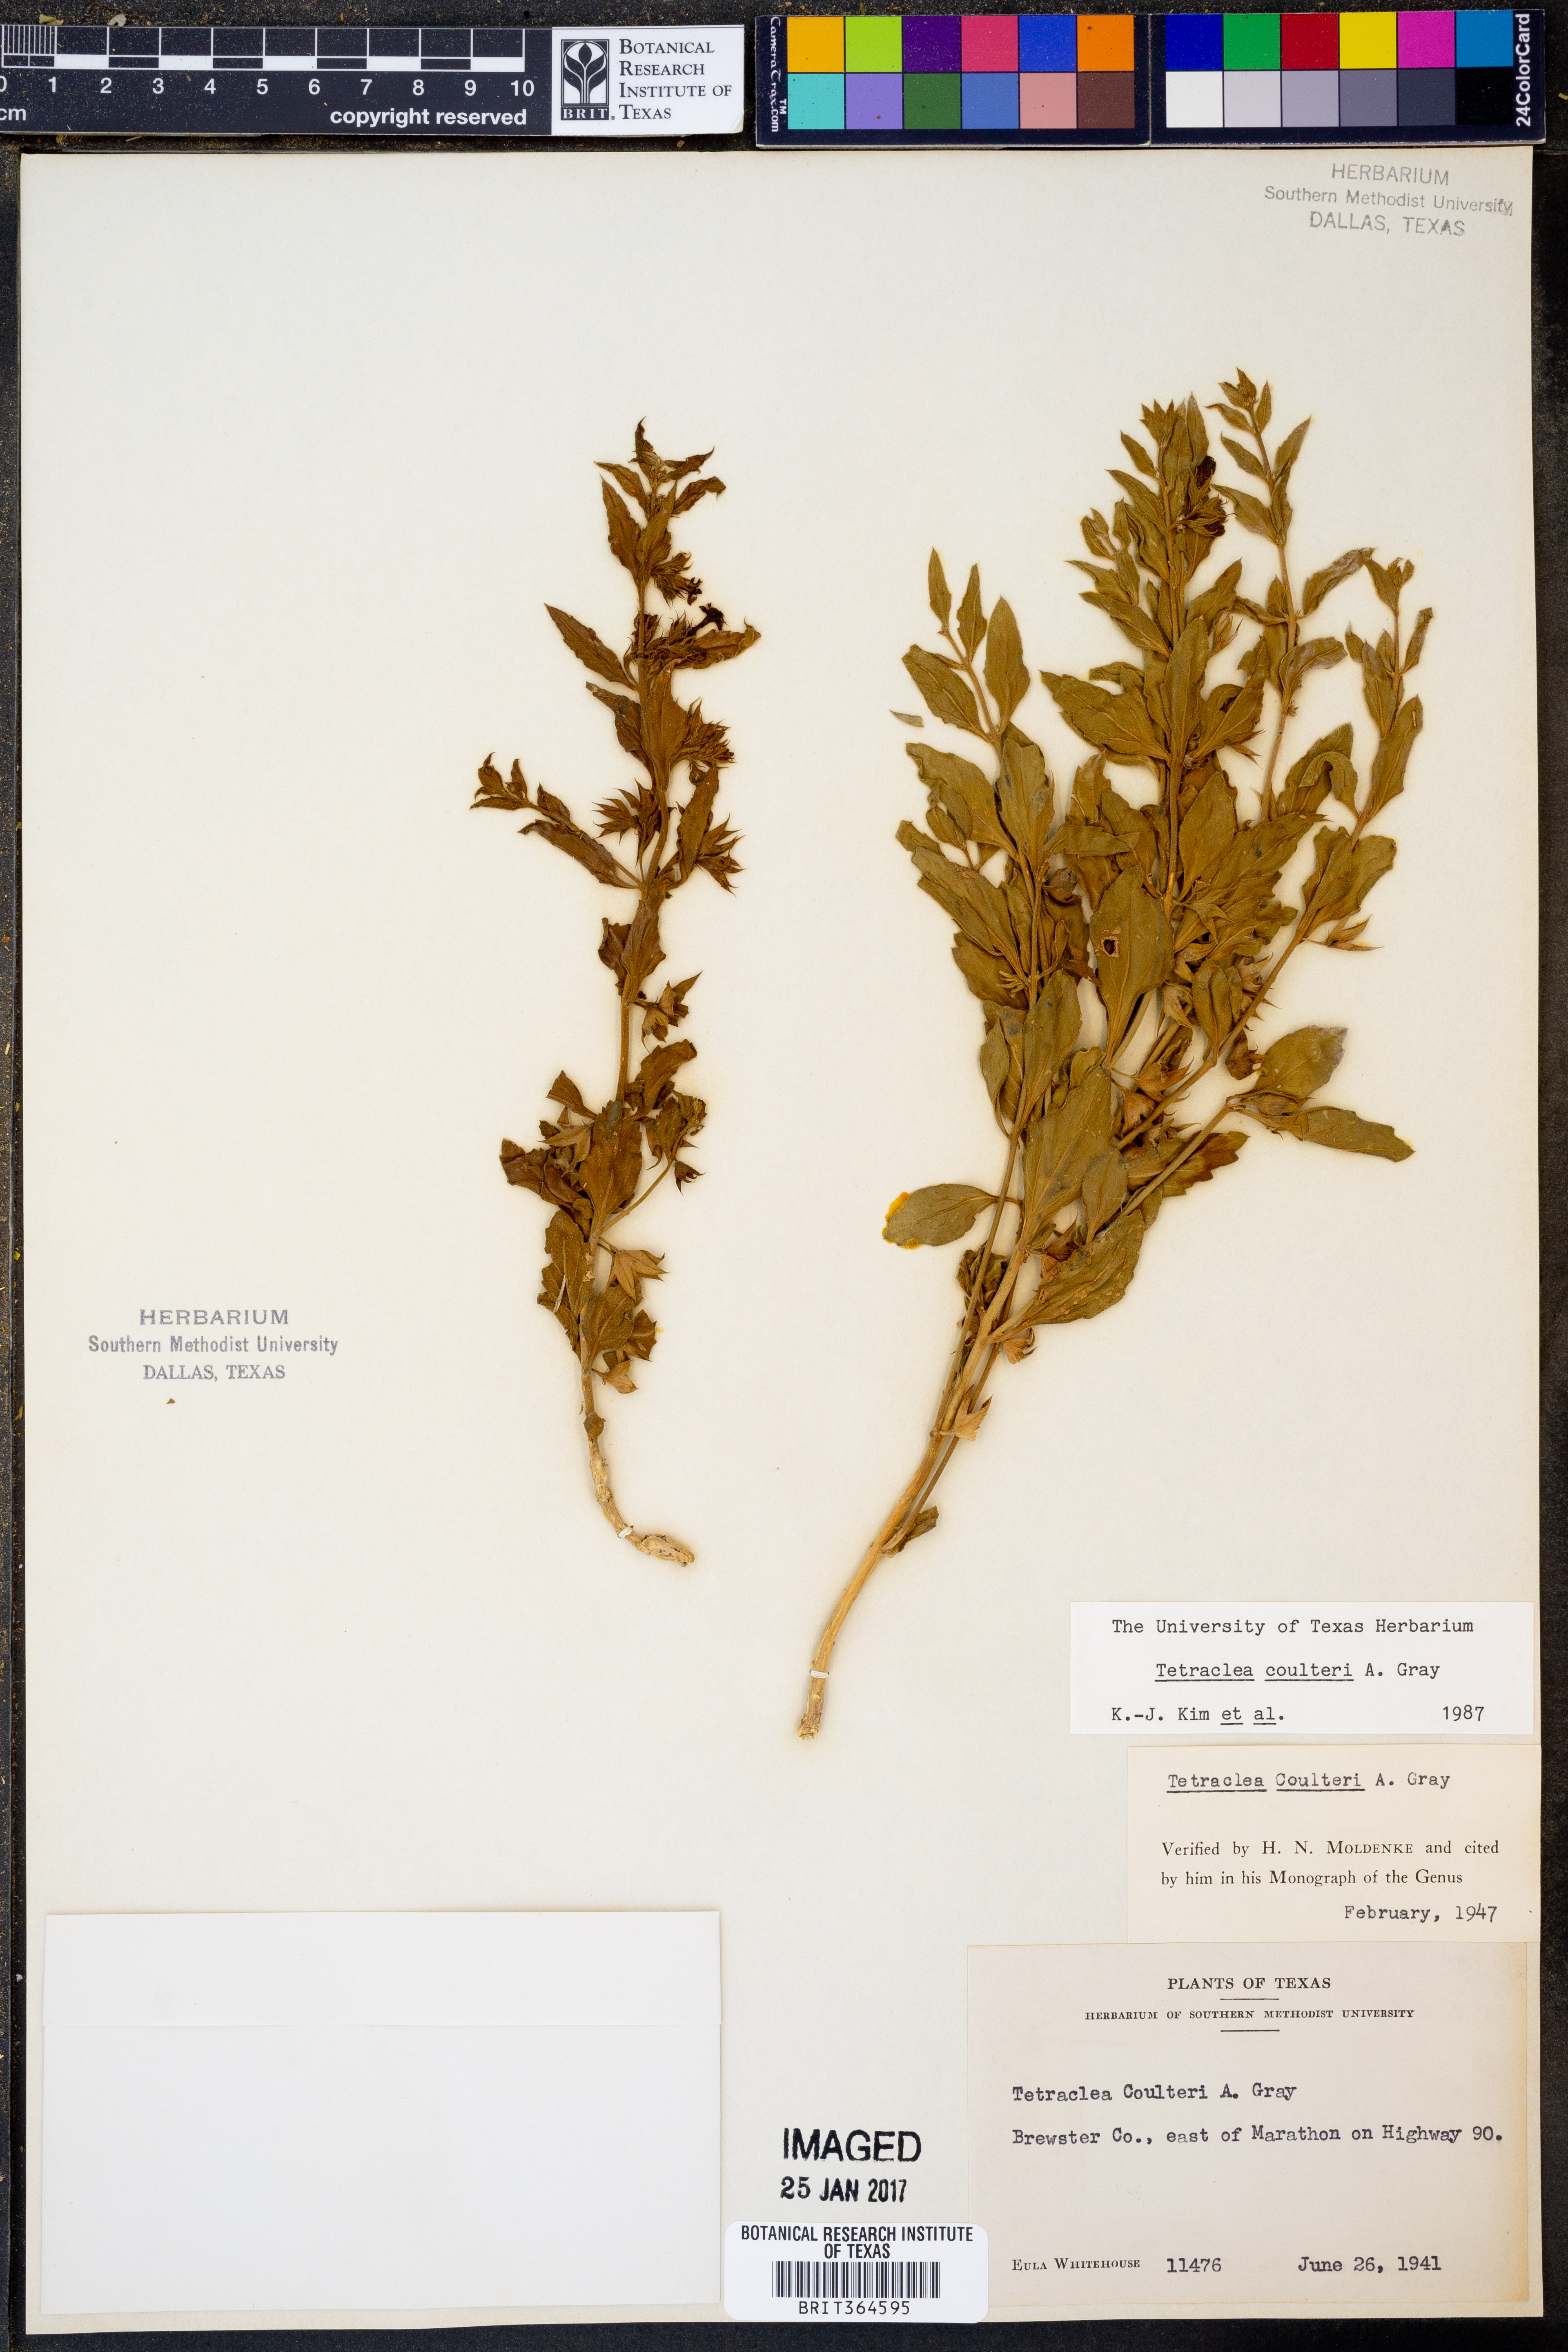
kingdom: Plantae
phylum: Tracheophyta
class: Magnoliopsida
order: Lamiales
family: Lamiaceae
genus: Tetraclea
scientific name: Tetraclea coulteri
